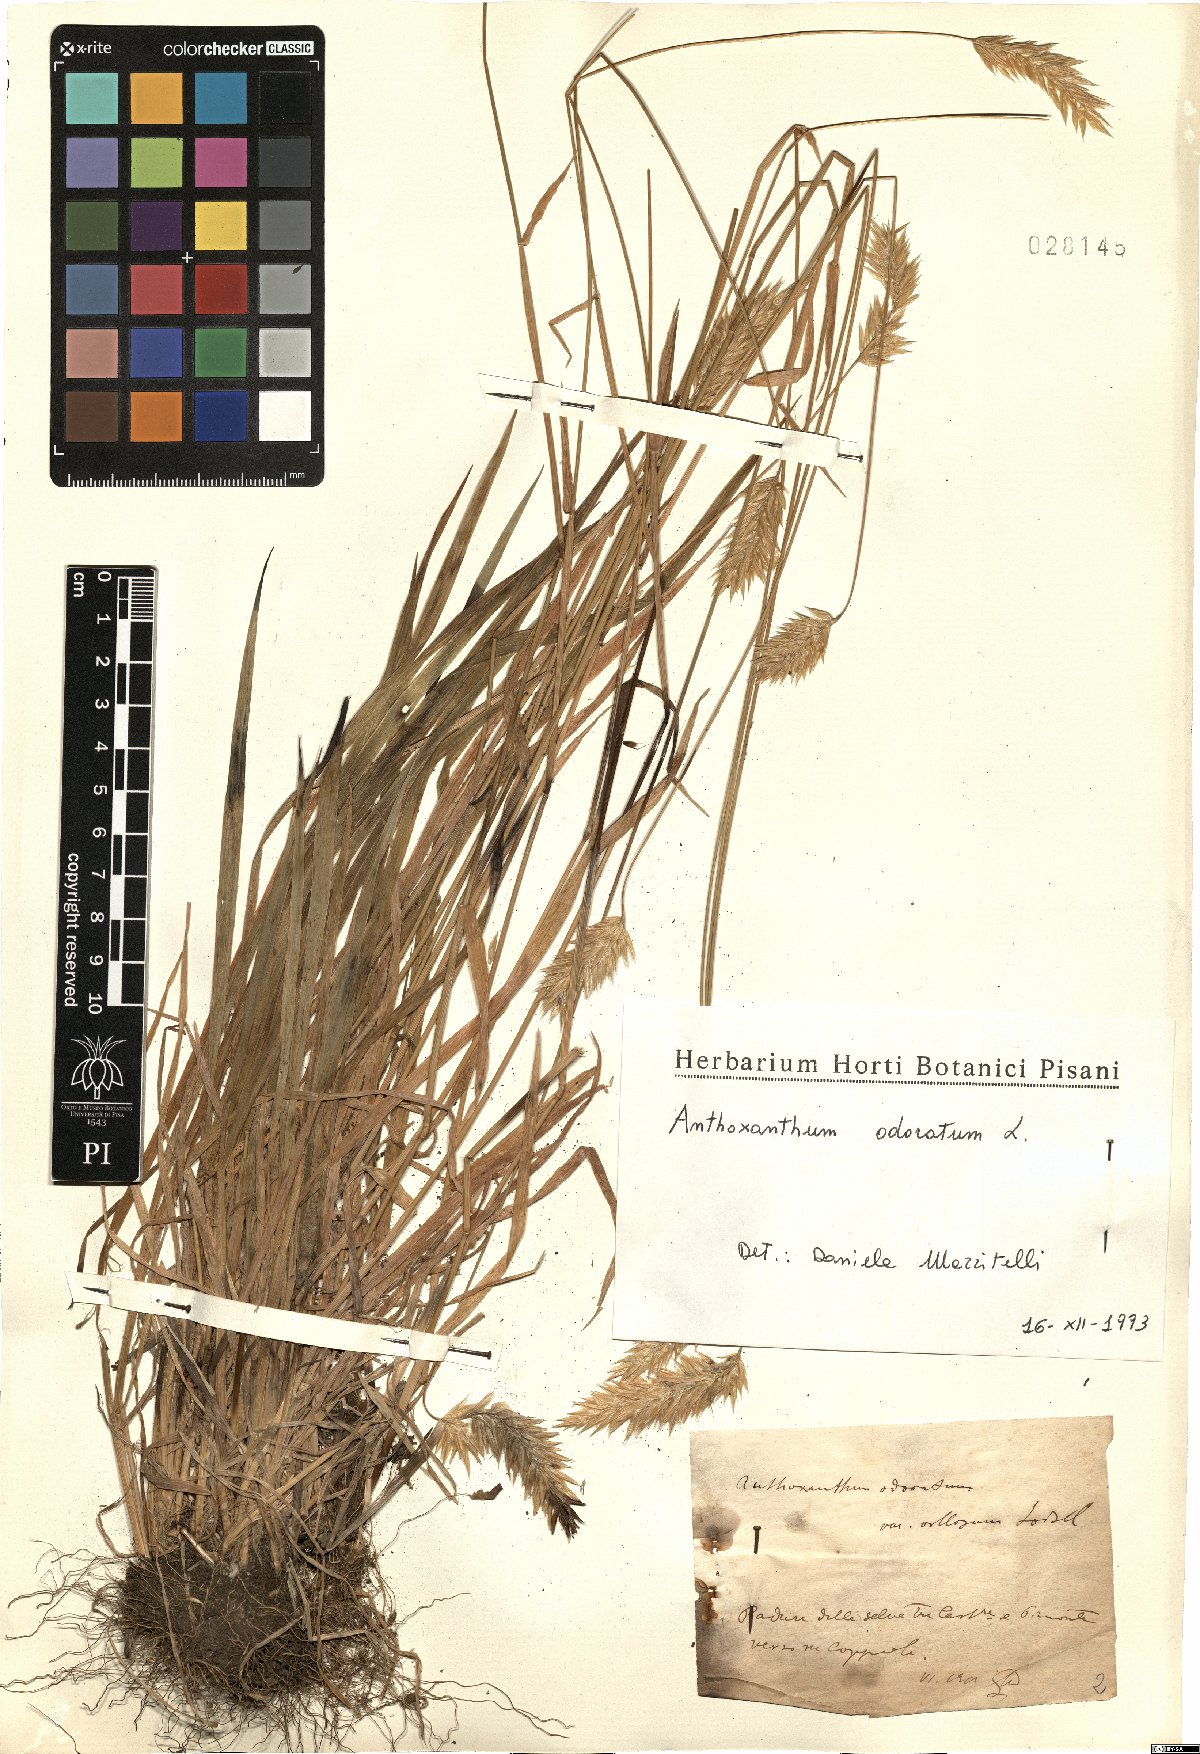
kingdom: Plantae
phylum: Tracheophyta
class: Liliopsida
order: Poales
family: Poaceae
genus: Anthoxanthum
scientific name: Anthoxanthum odoratum
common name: Sweet vernalgrass
